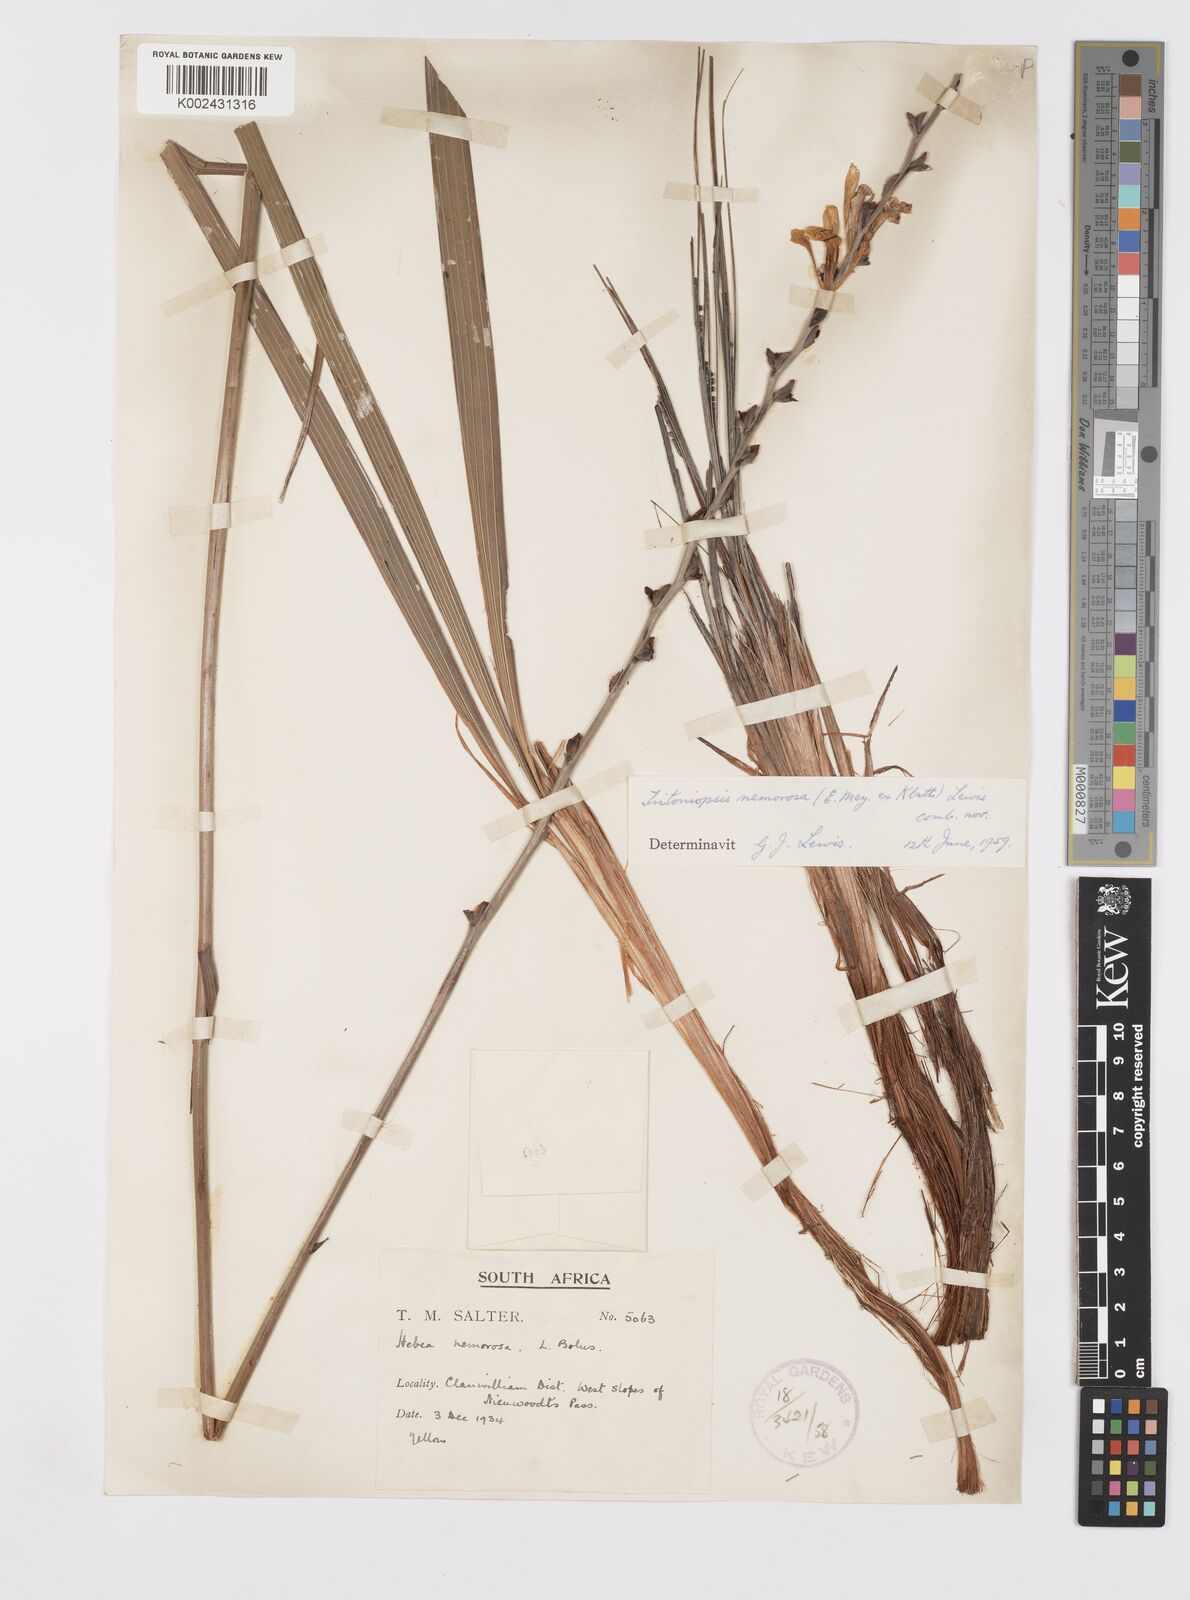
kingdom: Plantae
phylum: Tracheophyta
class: Liliopsida
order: Asparagales
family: Iridaceae
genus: Tritoniopsis
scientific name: Tritoniopsis nemorosa
